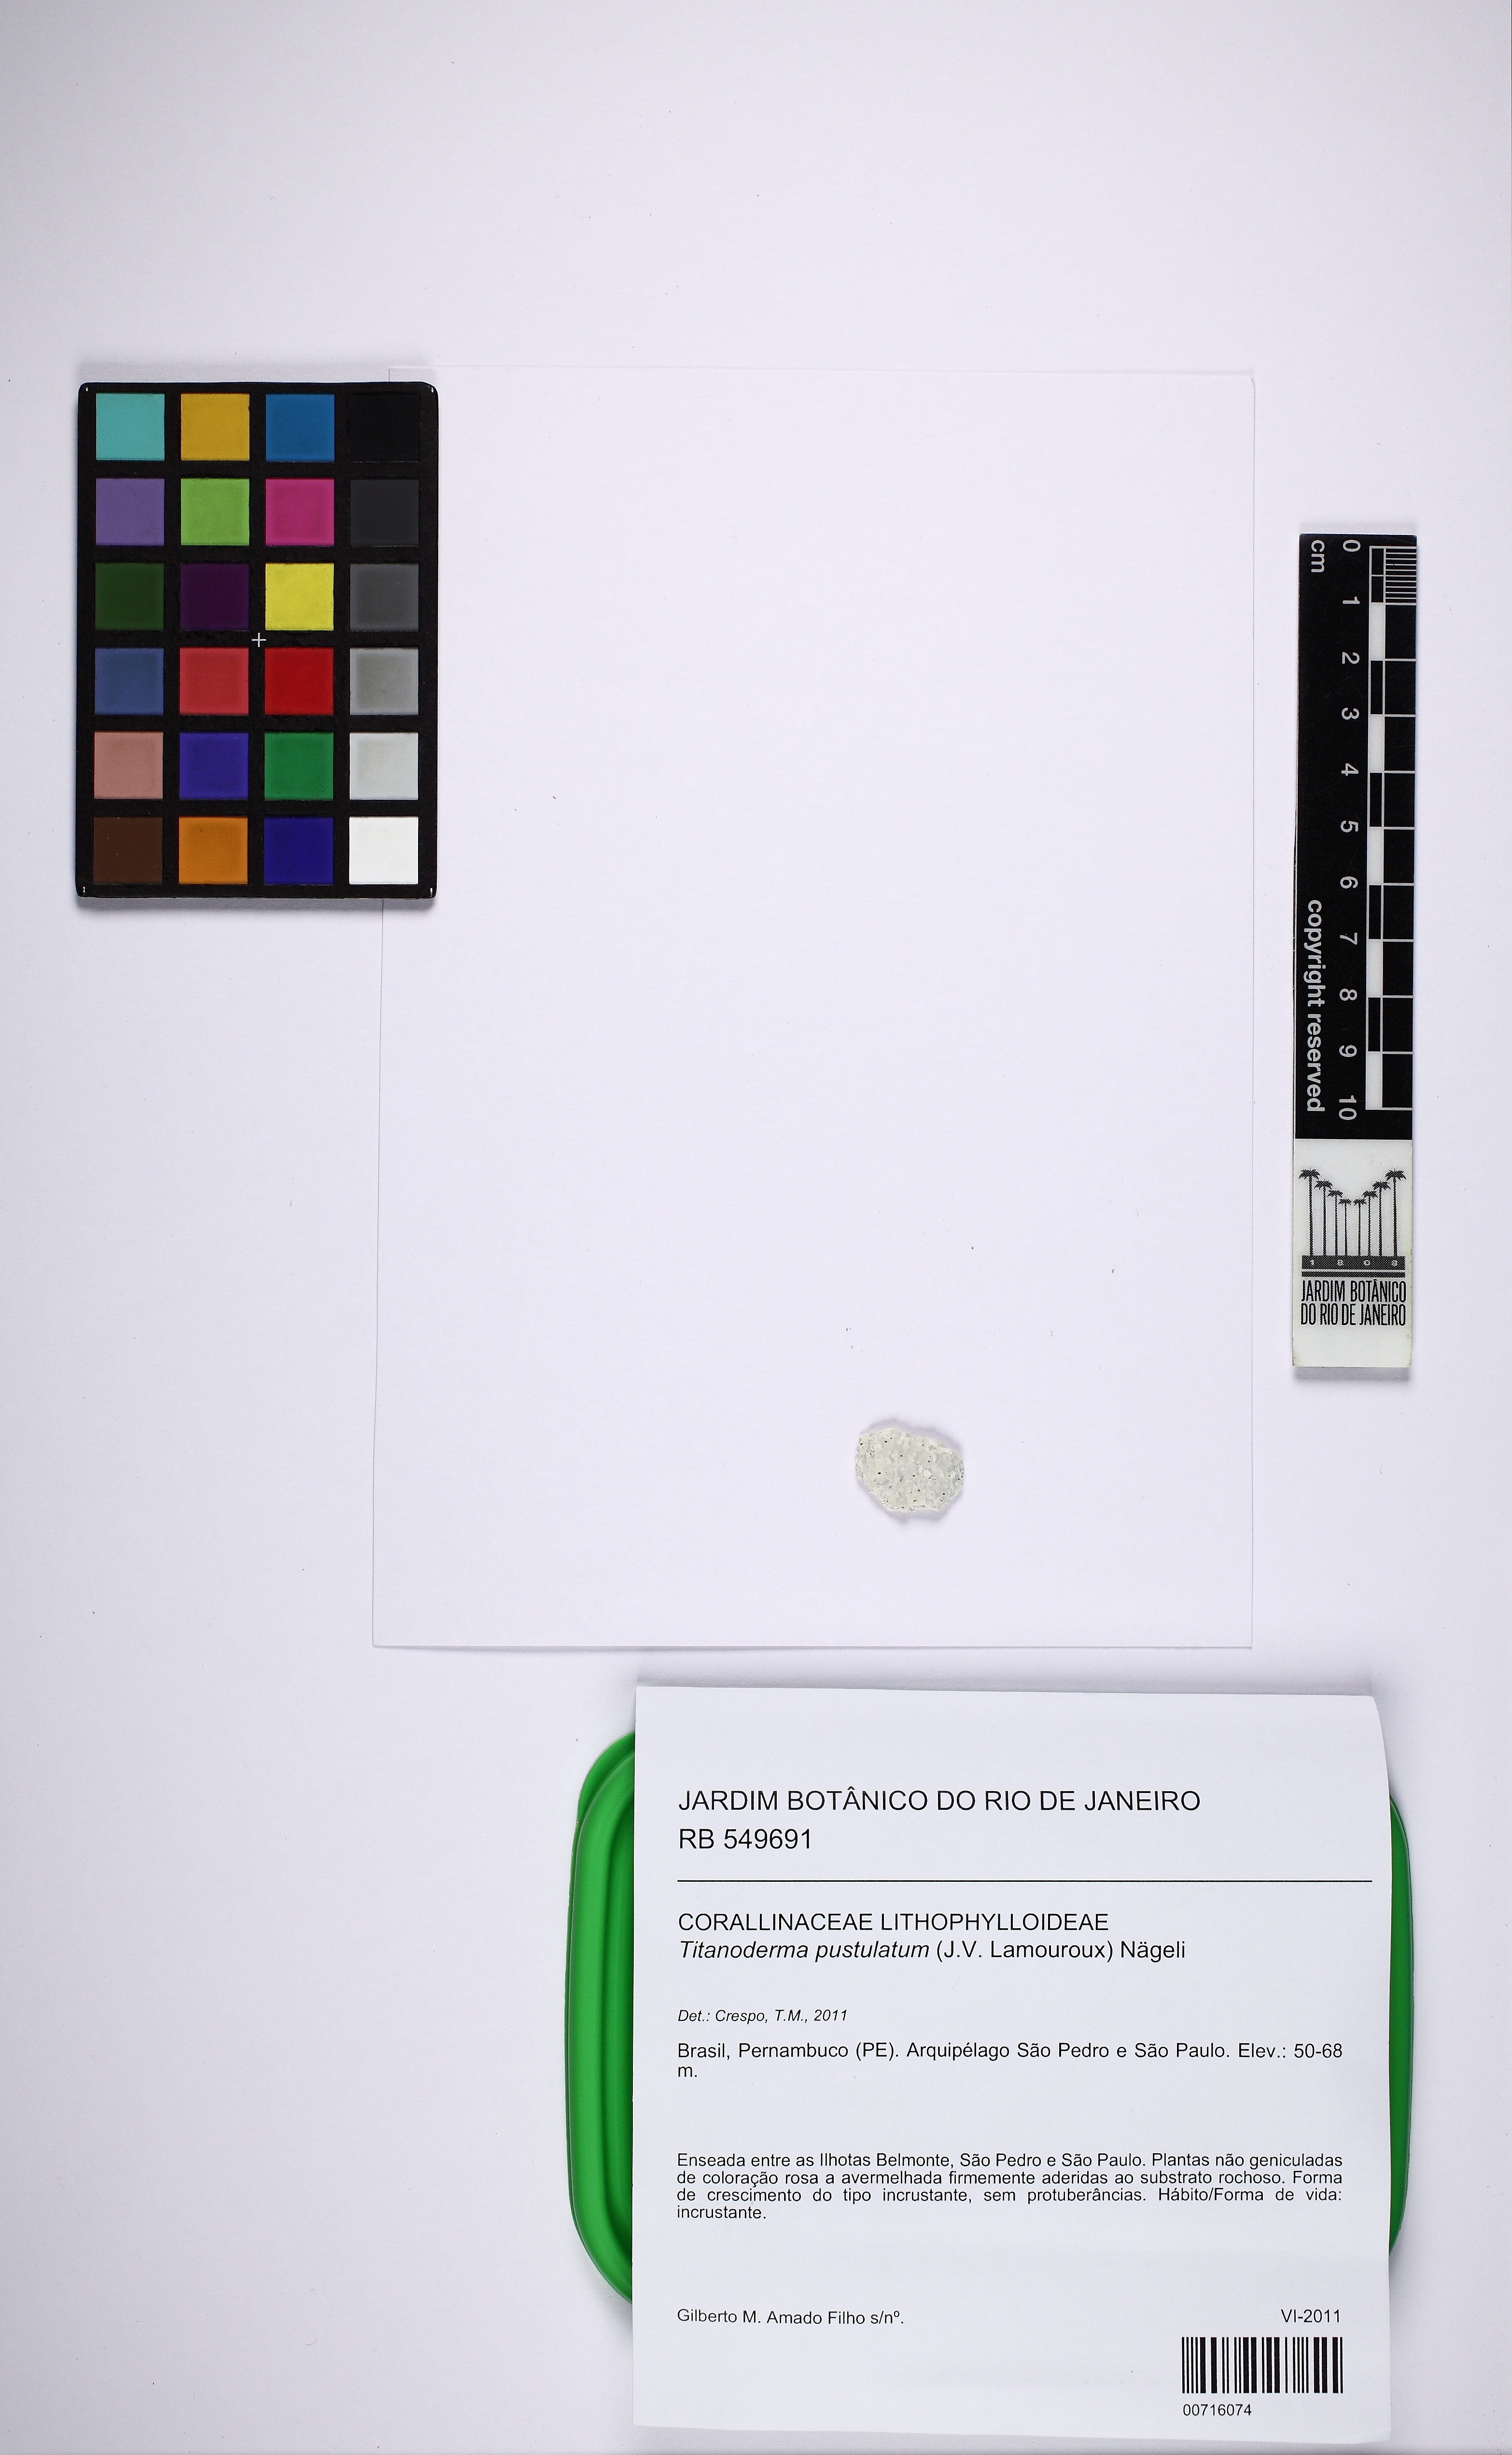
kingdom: Plantae
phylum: Rhodophyta
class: Florideophyceae
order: Corallinales
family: Lithophyllaceae
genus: Lithophyllum
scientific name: Lithophyllum pustulatum
